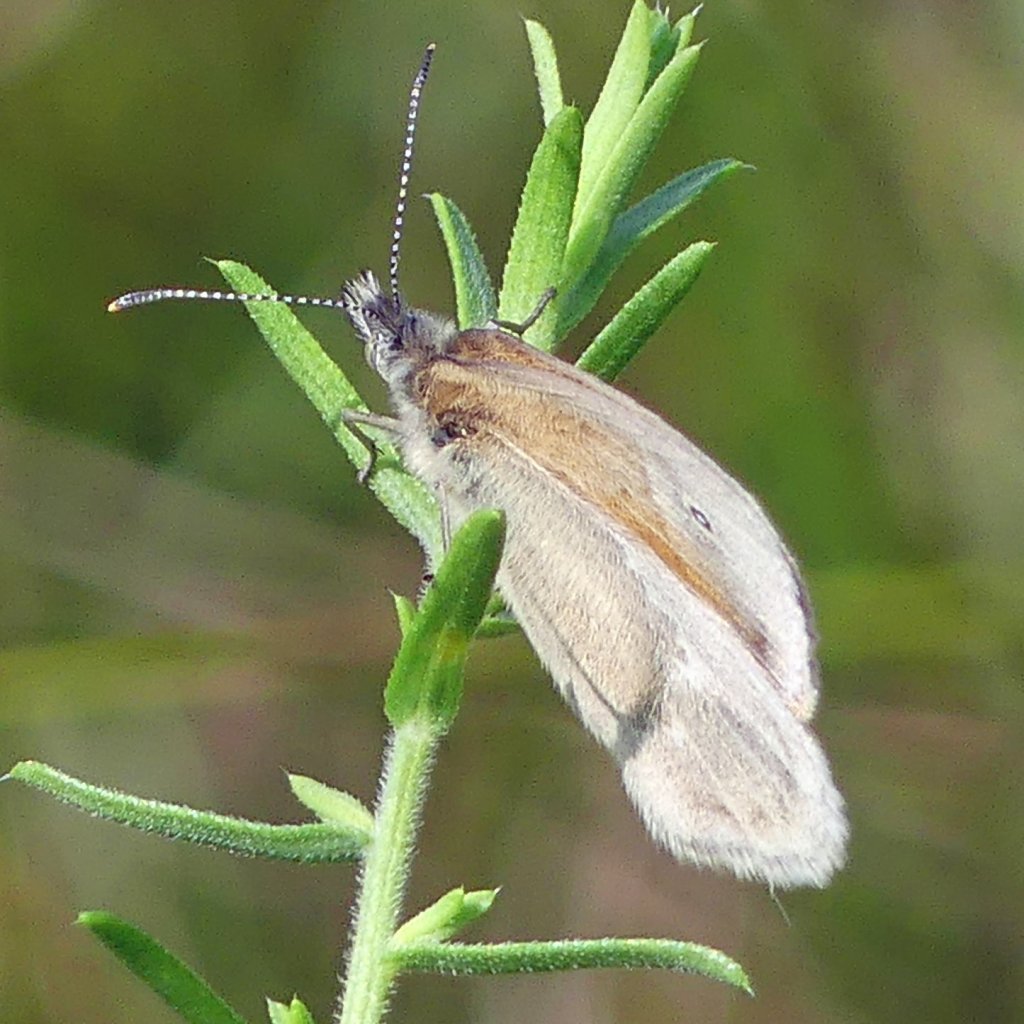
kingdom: Animalia
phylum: Arthropoda
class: Insecta
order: Lepidoptera
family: Nymphalidae
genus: Coenonympha
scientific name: Coenonympha tullia
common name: Large Heath
